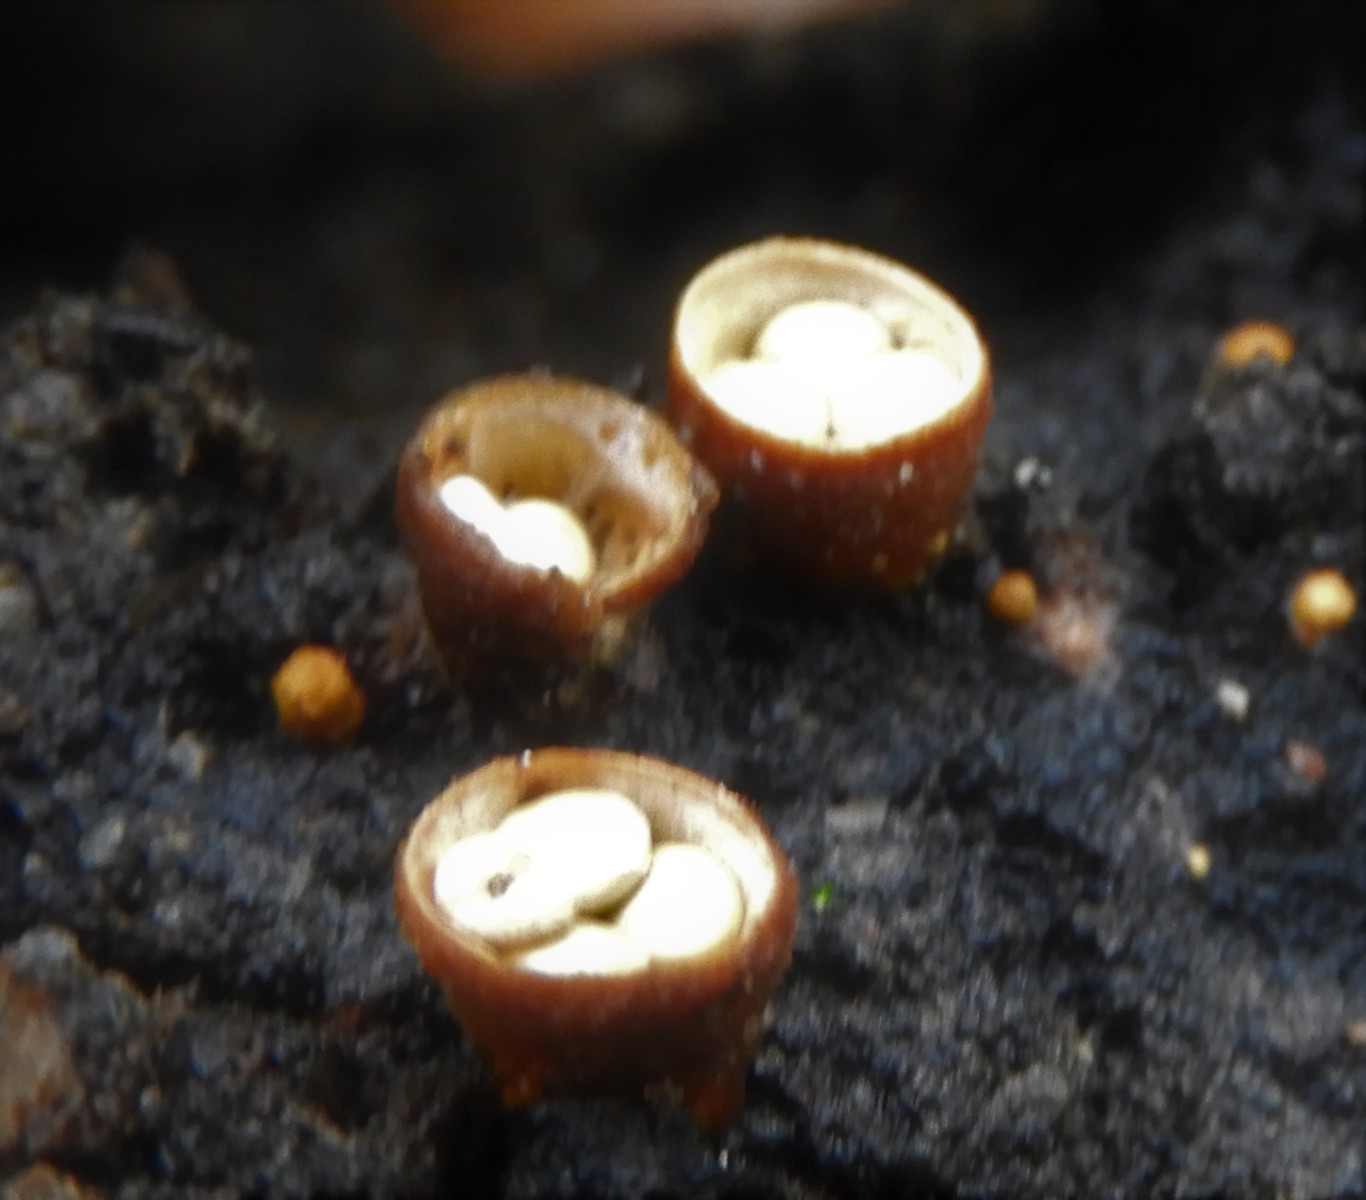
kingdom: Fungi
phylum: Basidiomycota
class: Agaricomycetes
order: Agaricales
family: Nidulariaceae
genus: Crucibulum
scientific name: Crucibulum crucibuliforme
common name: krukkesvamp
